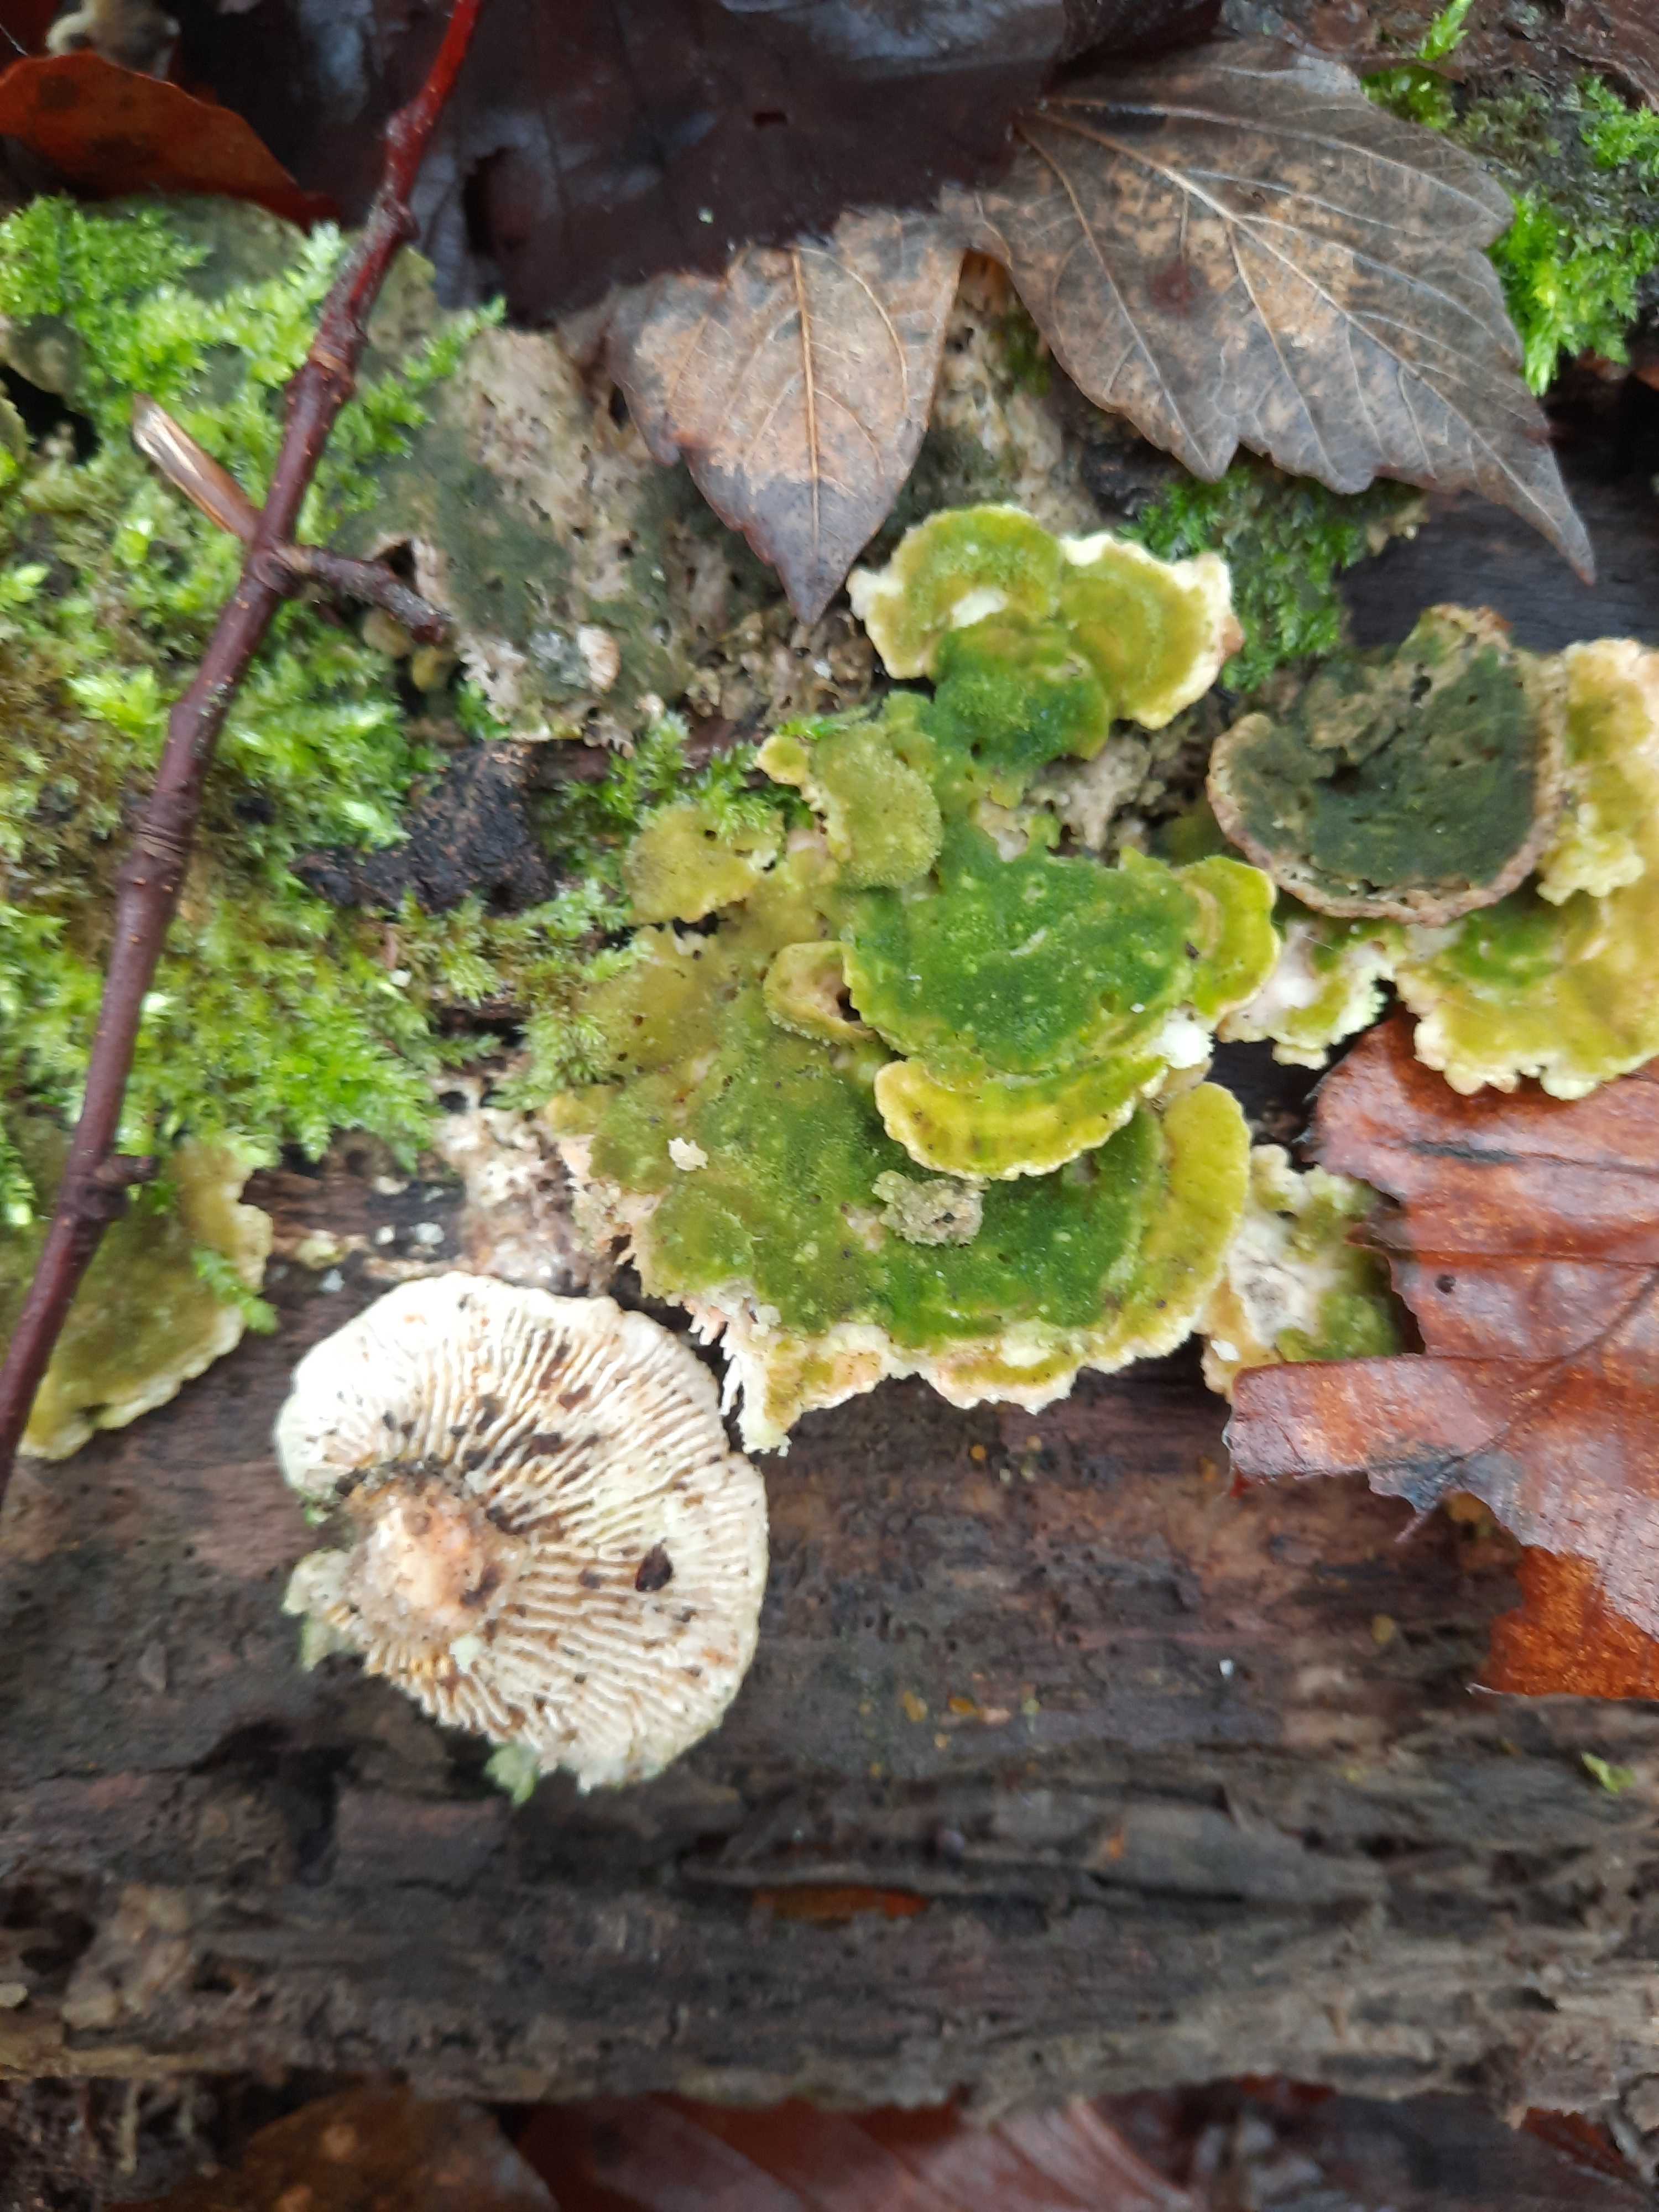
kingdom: Fungi
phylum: Basidiomycota
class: Agaricomycetes
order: Polyporales
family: Polyporaceae
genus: Lenzites
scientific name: Lenzites betulinus
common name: birke-læderporesvamp
